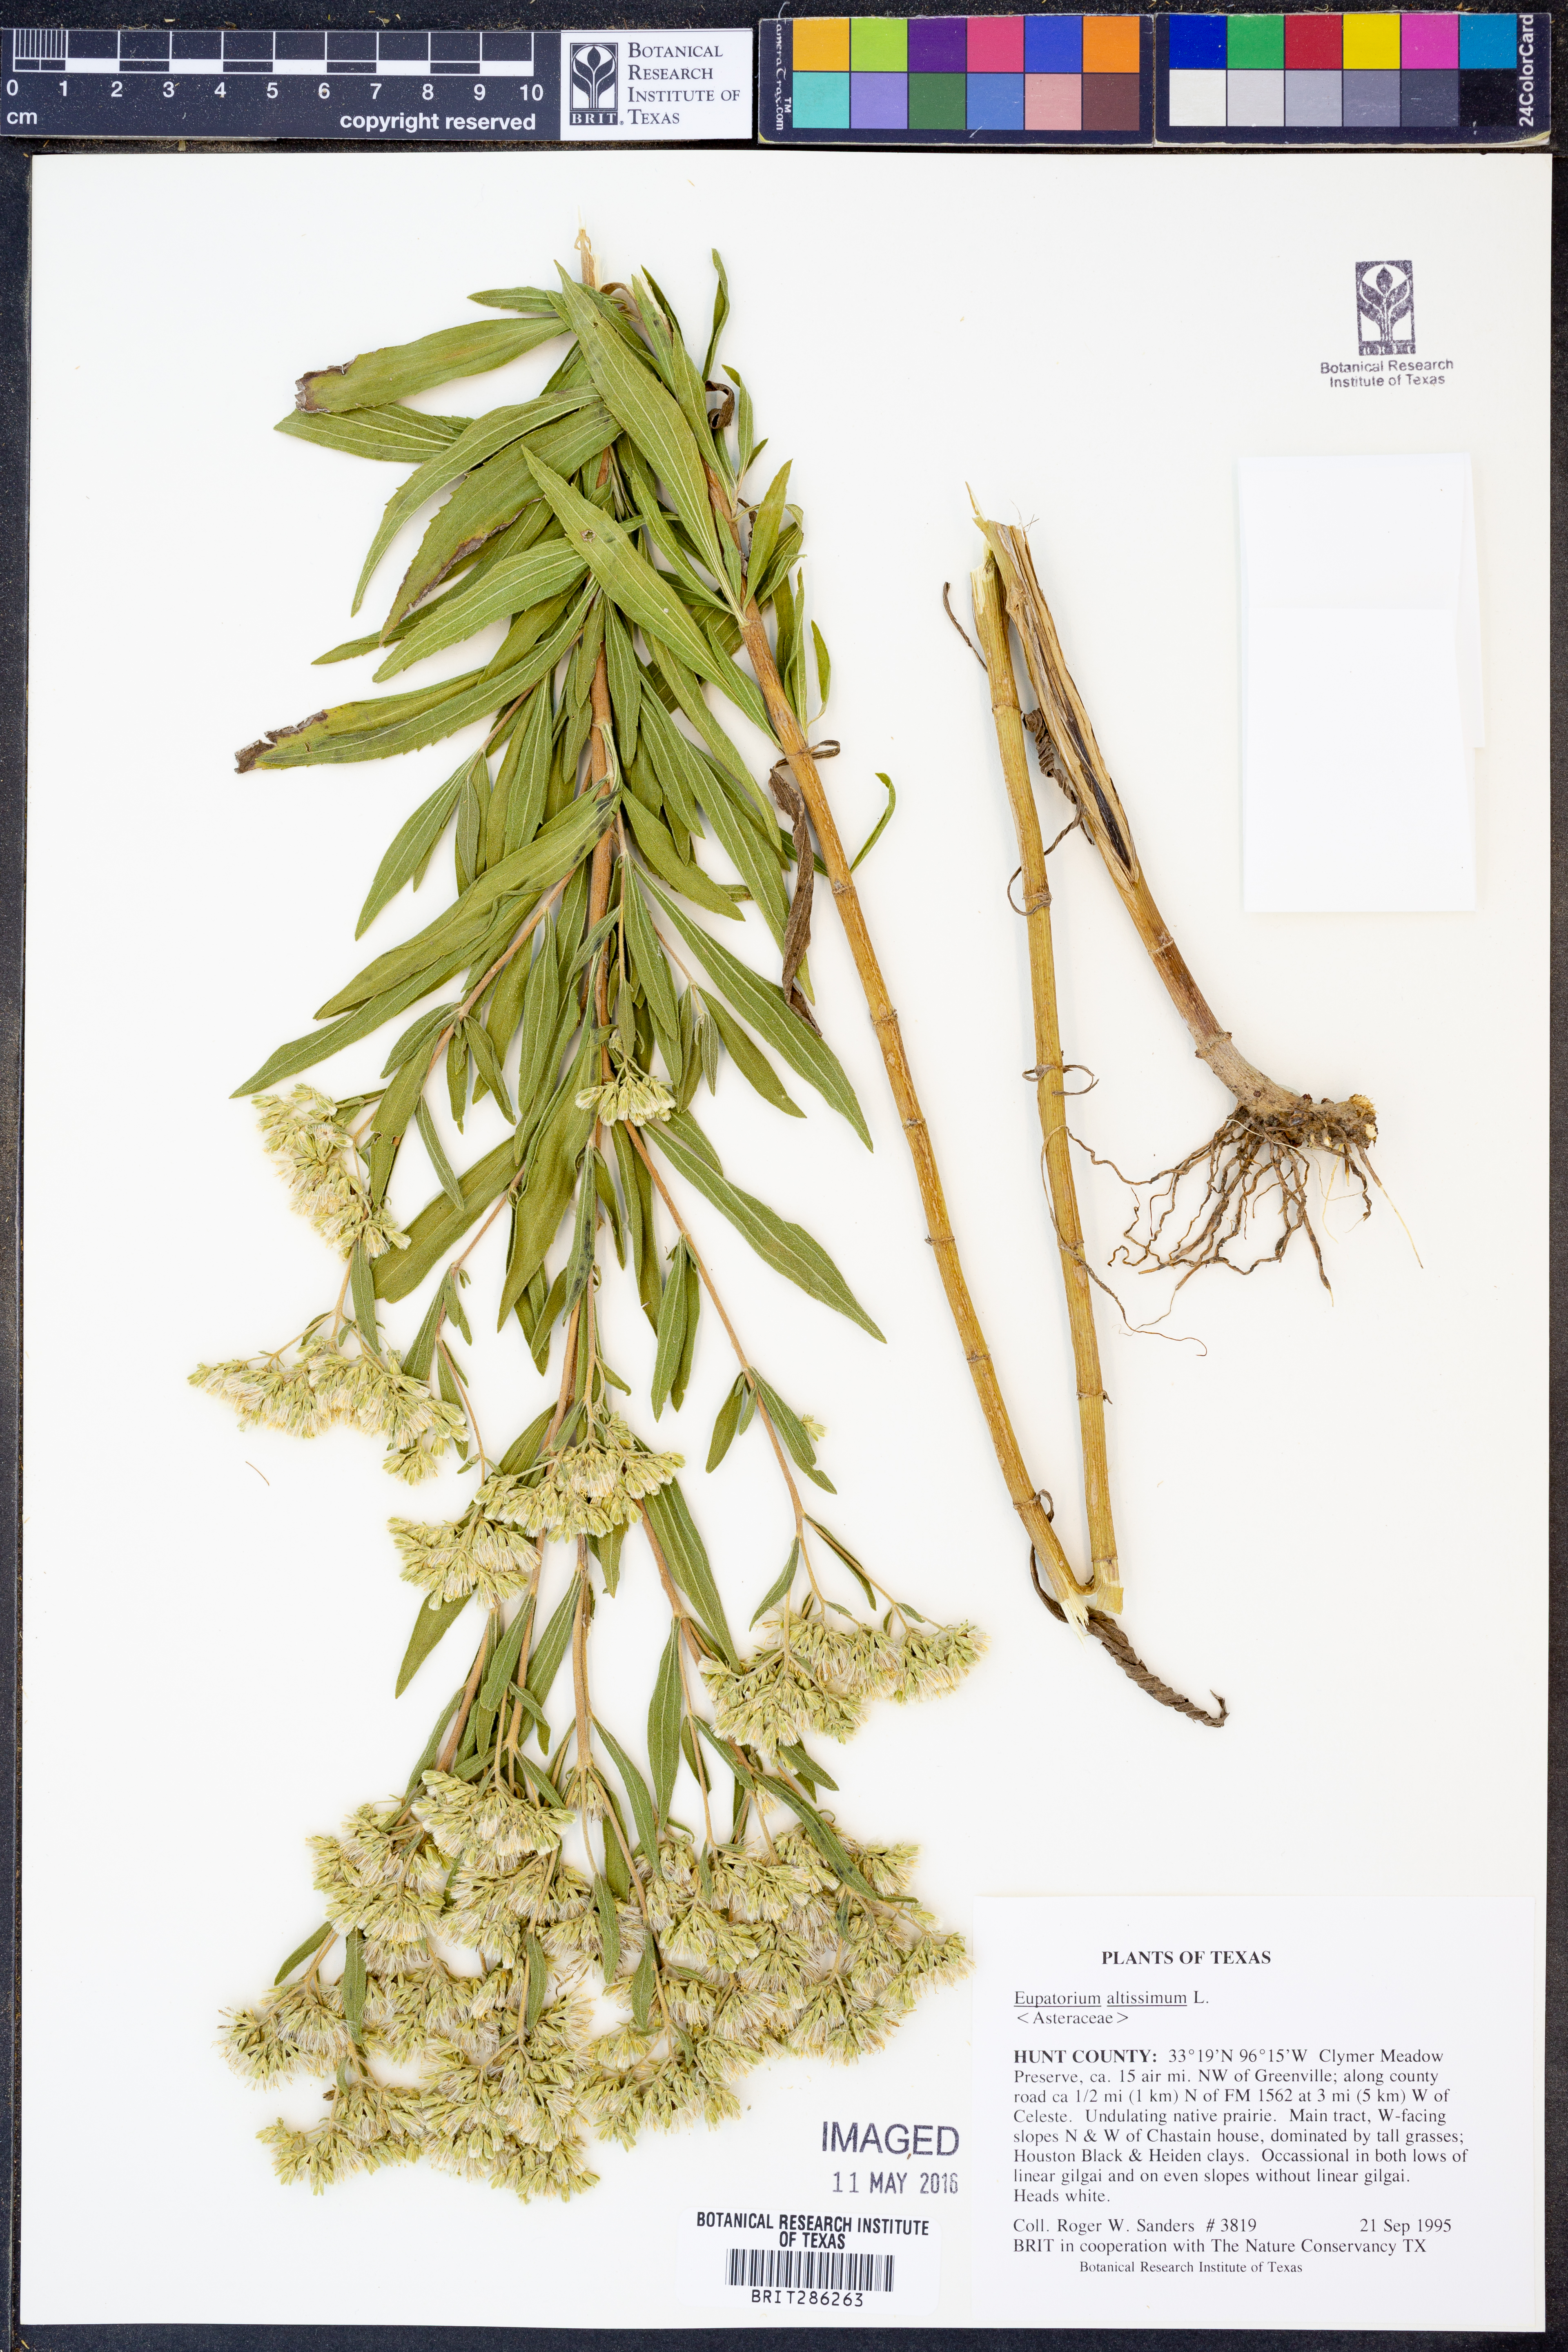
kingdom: Plantae
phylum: Tracheophyta
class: Magnoliopsida
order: Asterales
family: Asteraceae
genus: Eupatorium
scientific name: Eupatorium altissimum
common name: Tall thoroughwort
